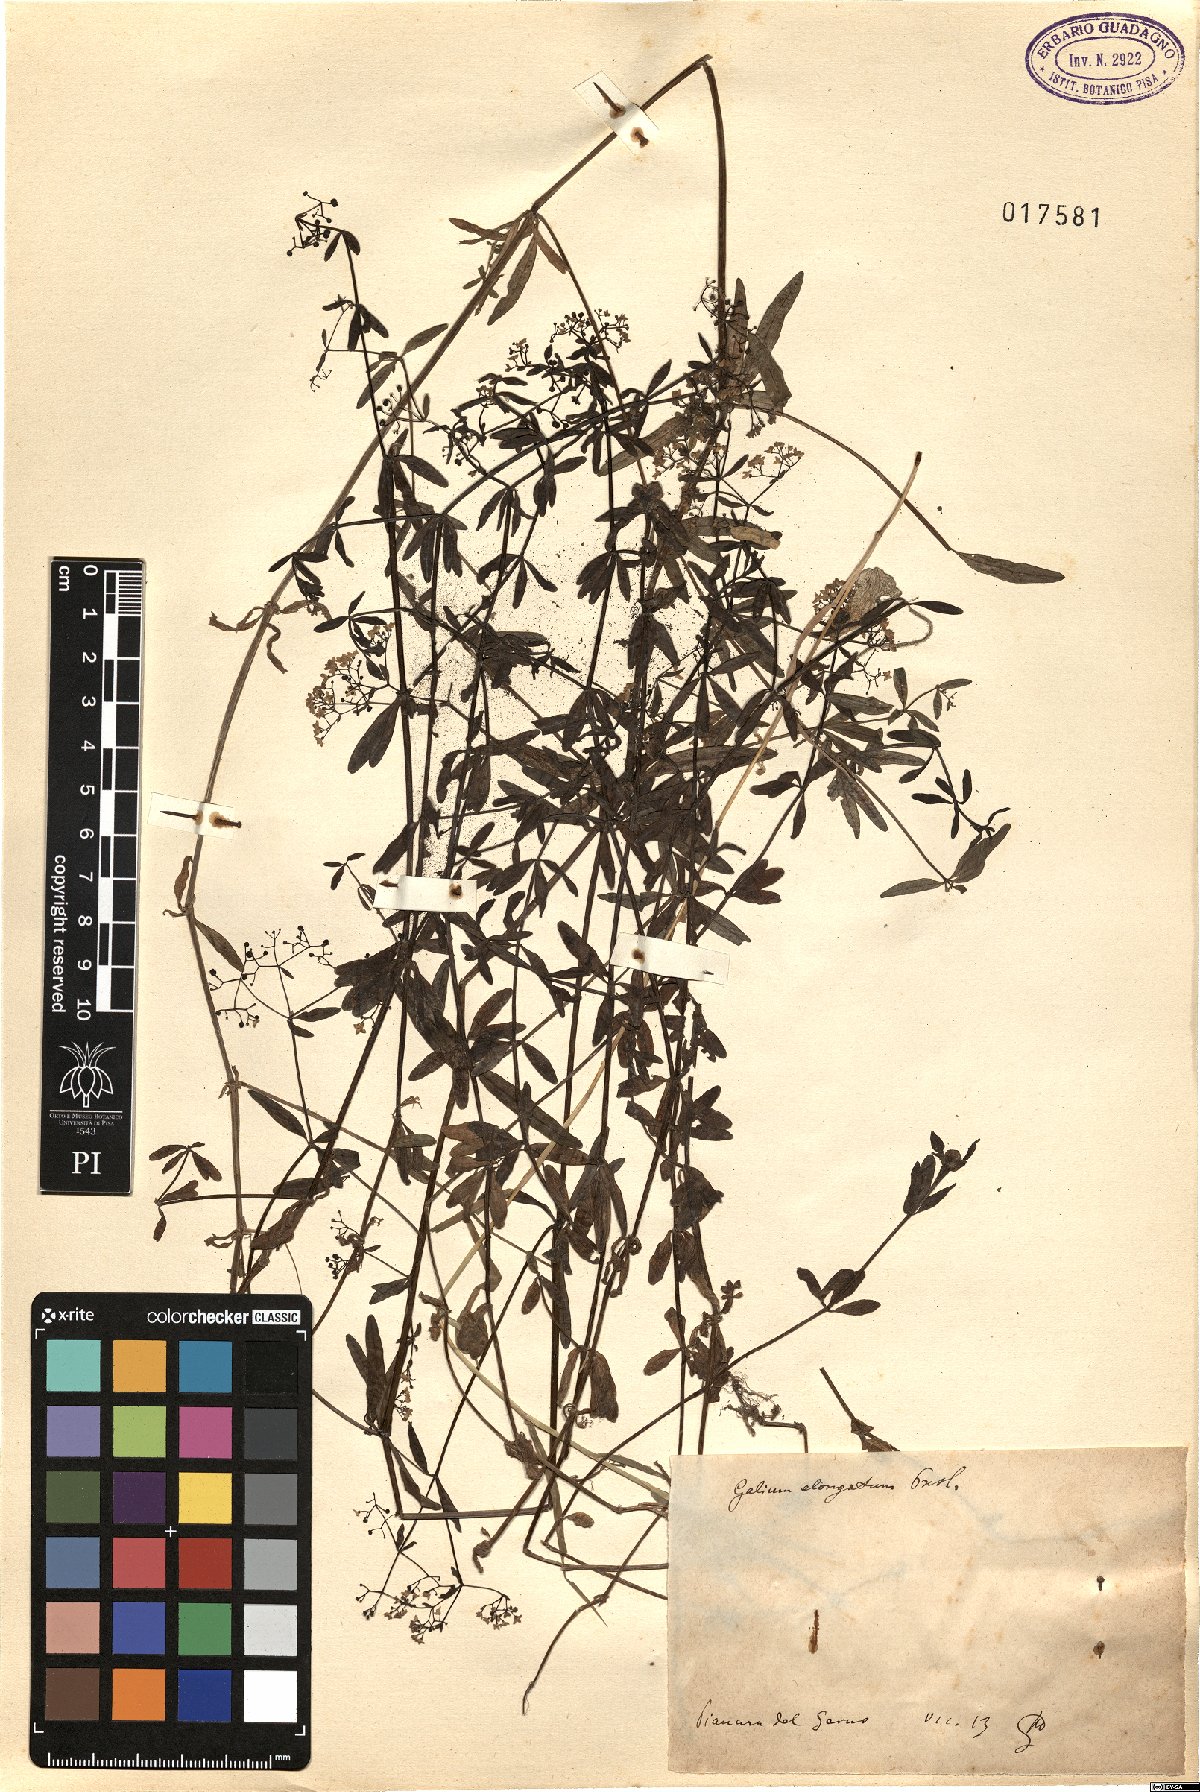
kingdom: Plantae
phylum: Tracheophyta
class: Magnoliopsida
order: Gentianales
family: Rubiaceae
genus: Galium
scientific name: Galium elongatum
